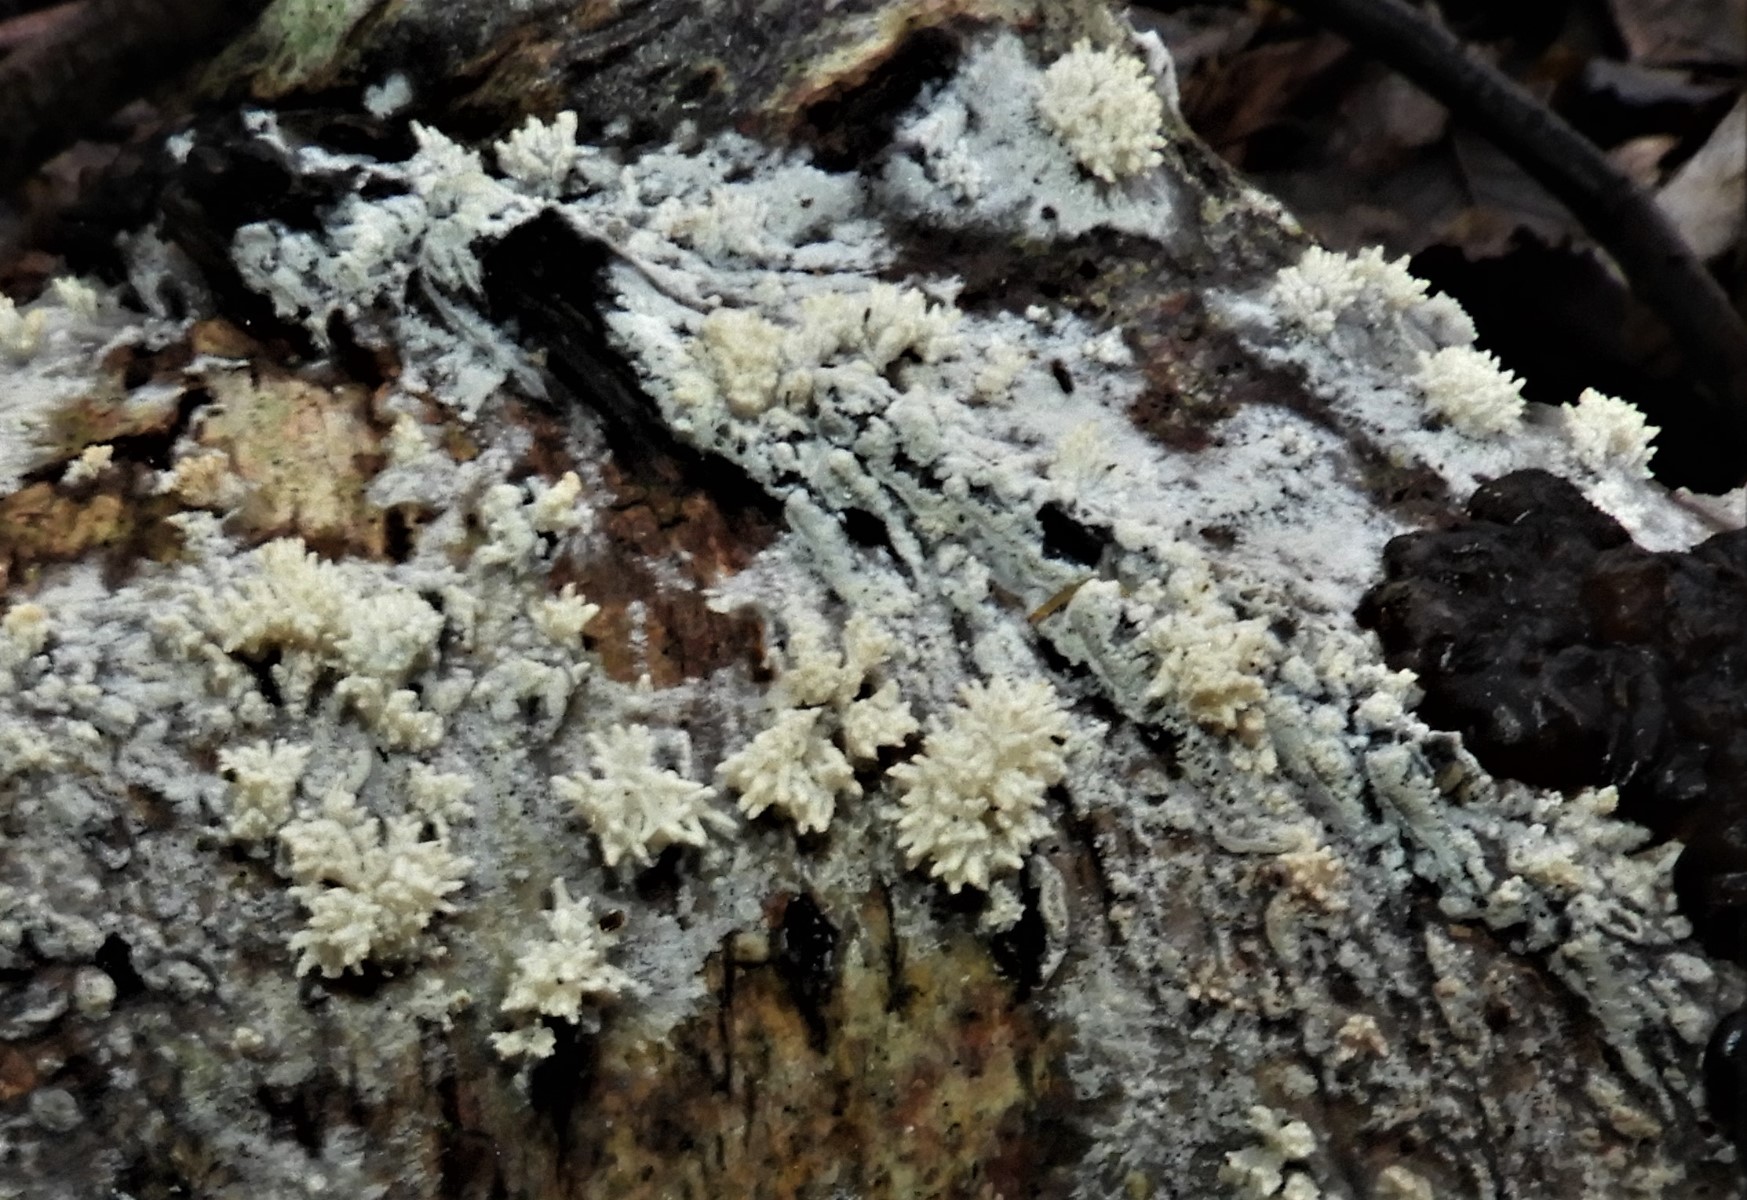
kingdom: Fungi
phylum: Basidiomycota
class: Agaricomycetes
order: Corticiales
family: Corticiaceae
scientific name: Corticiaceae
